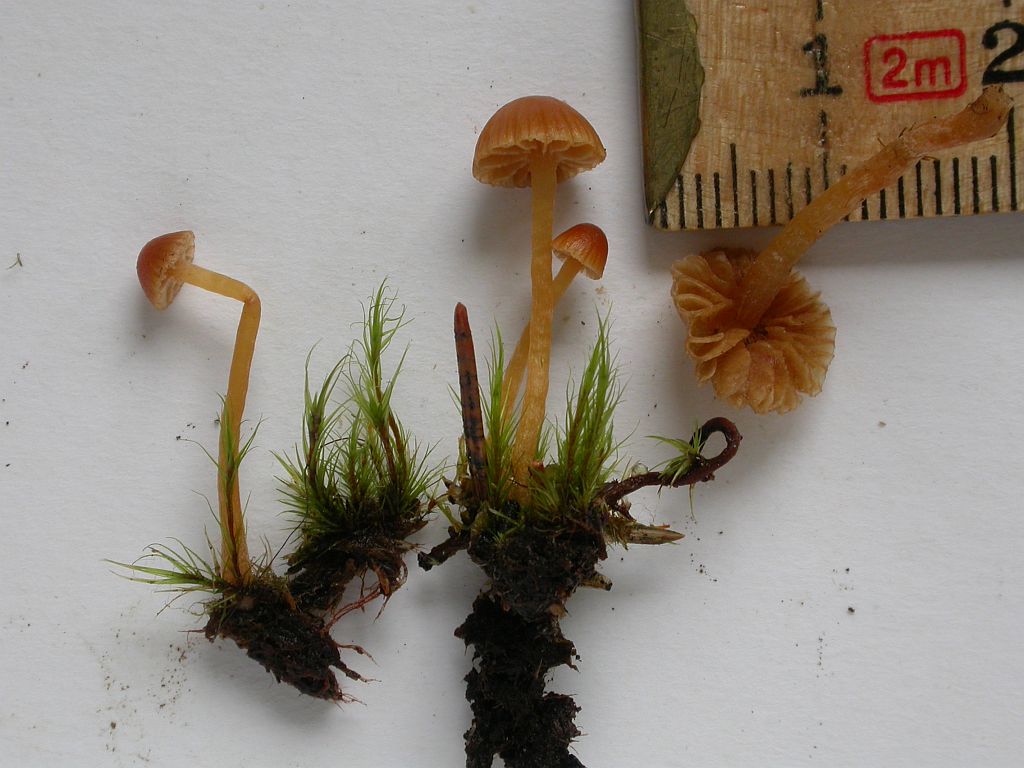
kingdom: Fungi
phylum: Basidiomycota
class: Agaricomycetes
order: Agaricales
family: Hymenogastraceae
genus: Galerina
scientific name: Galerina calyptrata
